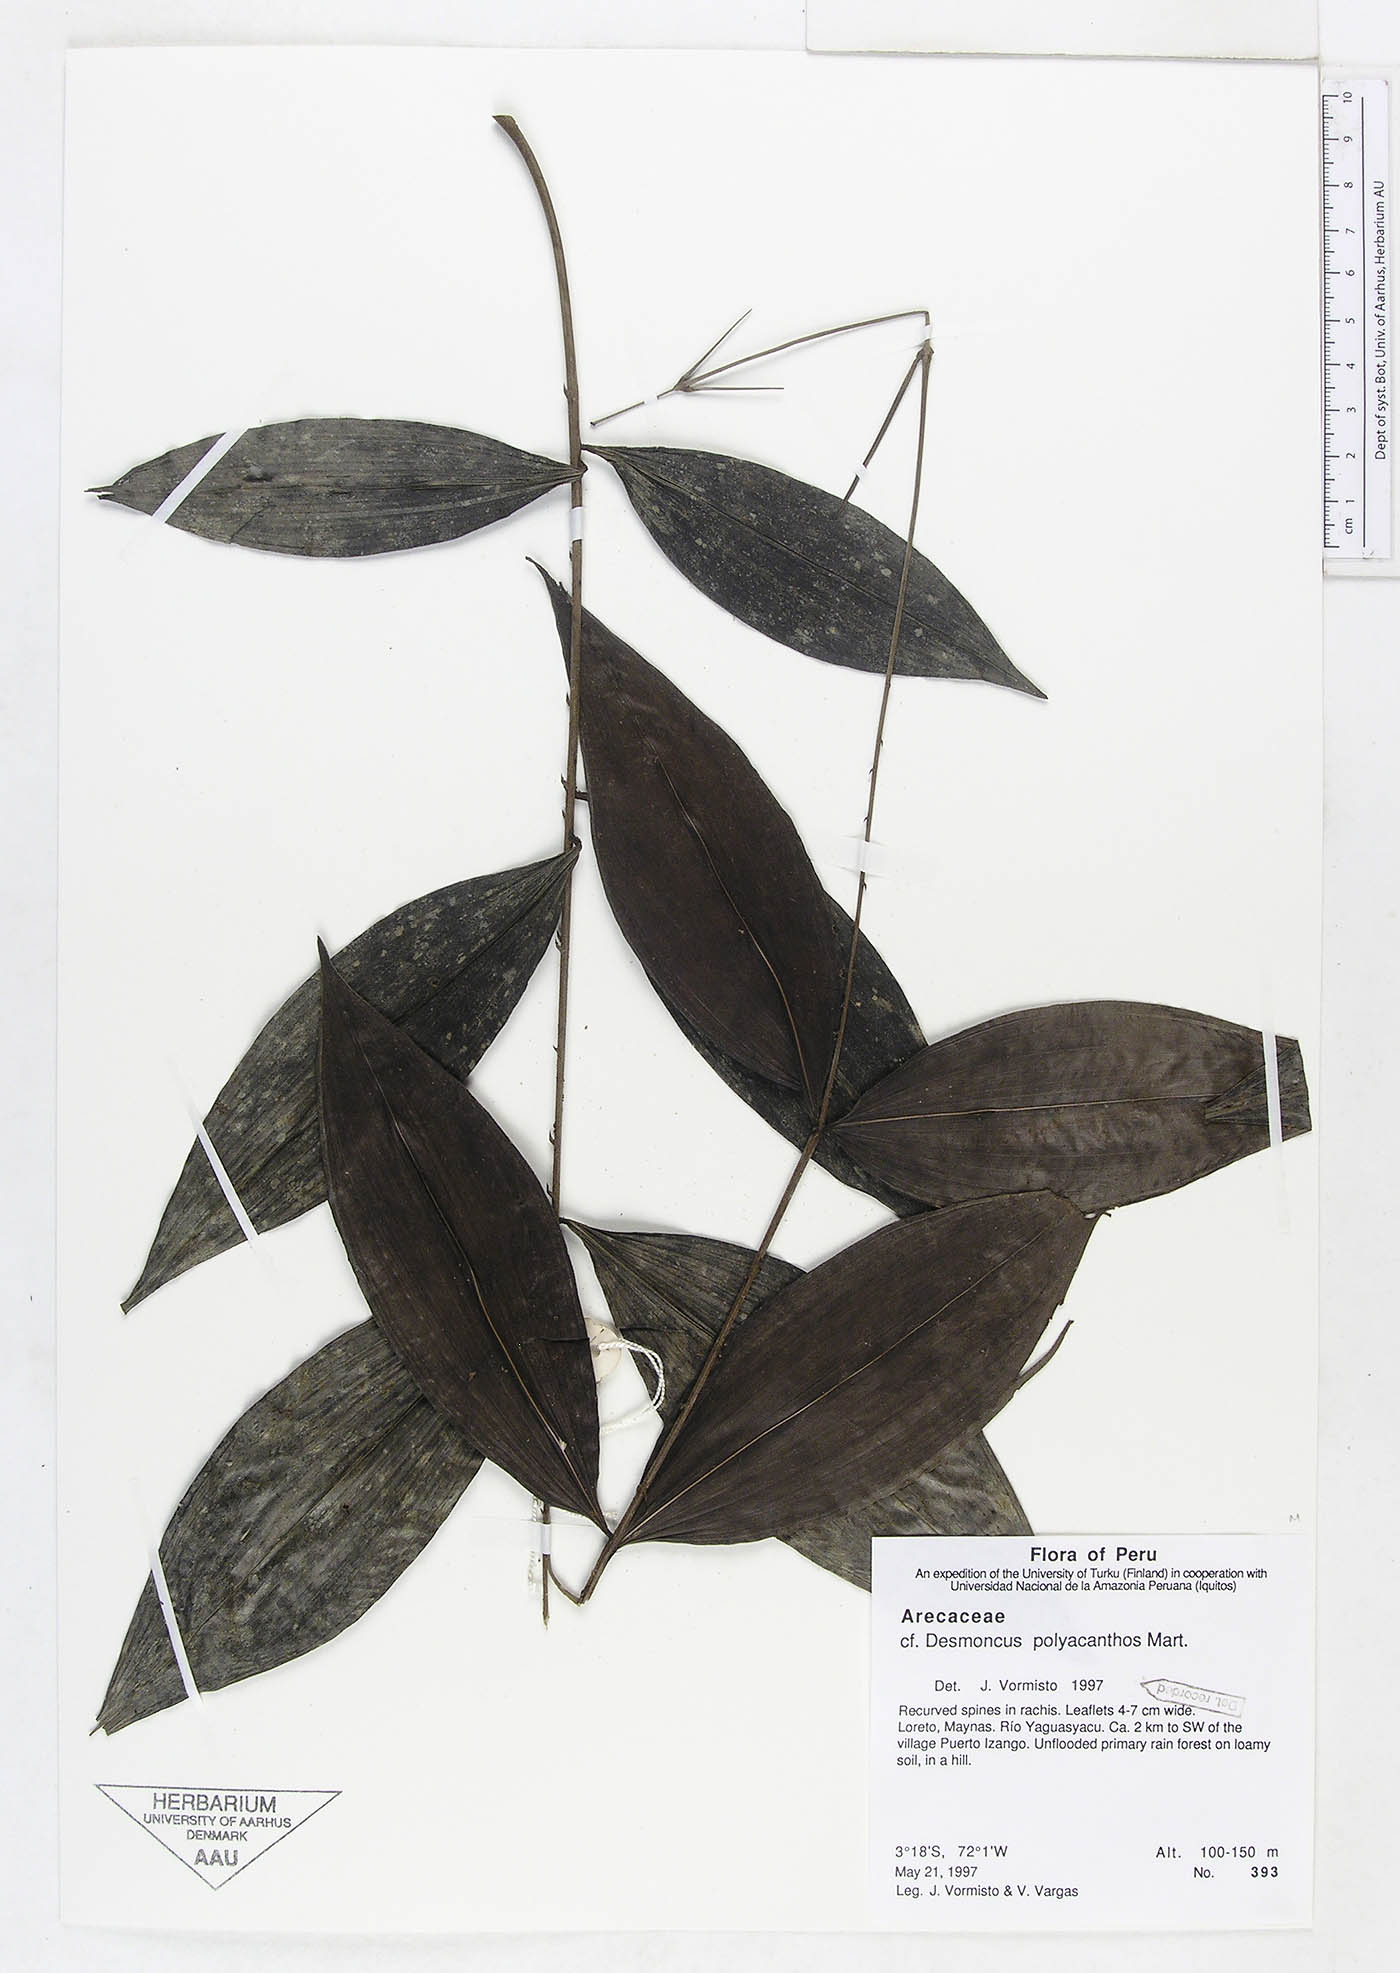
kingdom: Plantae
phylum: Tracheophyta
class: Liliopsida
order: Arecales
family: Arecaceae
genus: Desmoncus
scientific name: Desmoncus polyacanthos
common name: Suriname bramble palm
